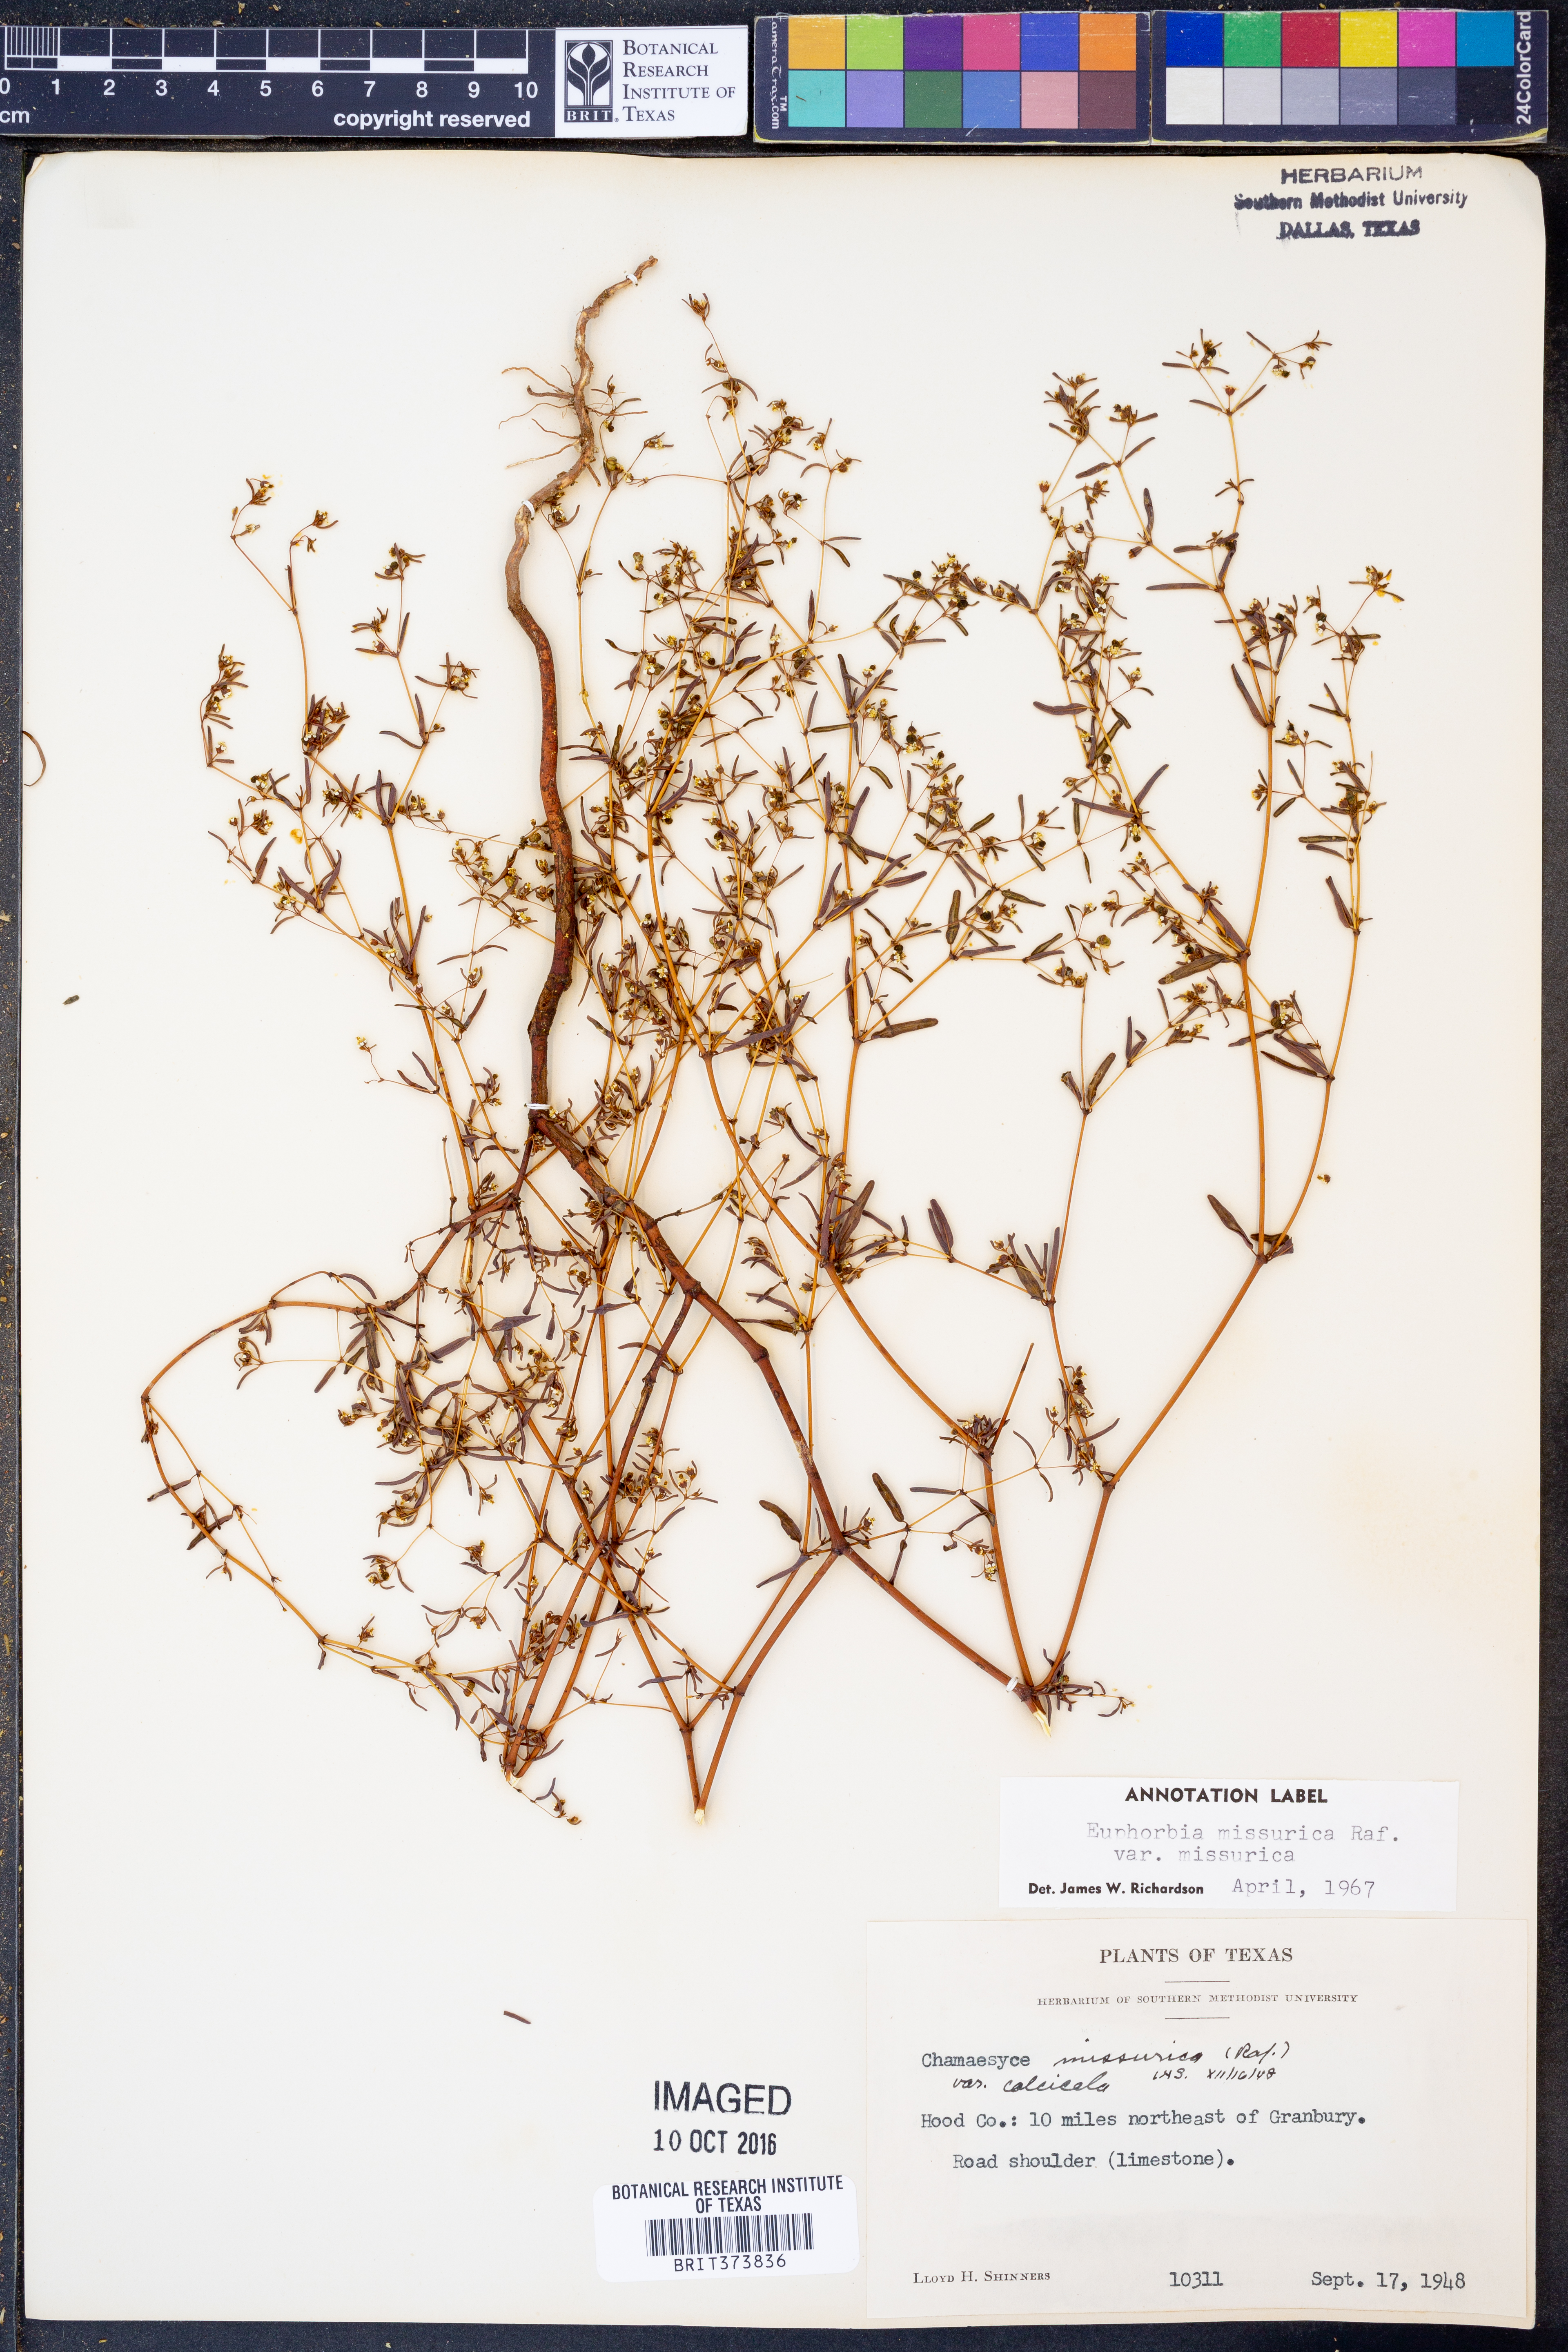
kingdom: Plantae
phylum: Tracheophyta
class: Magnoliopsida
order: Malpighiales
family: Euphorbiaceae
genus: Euphorbia
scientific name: Euphorbia missurica
